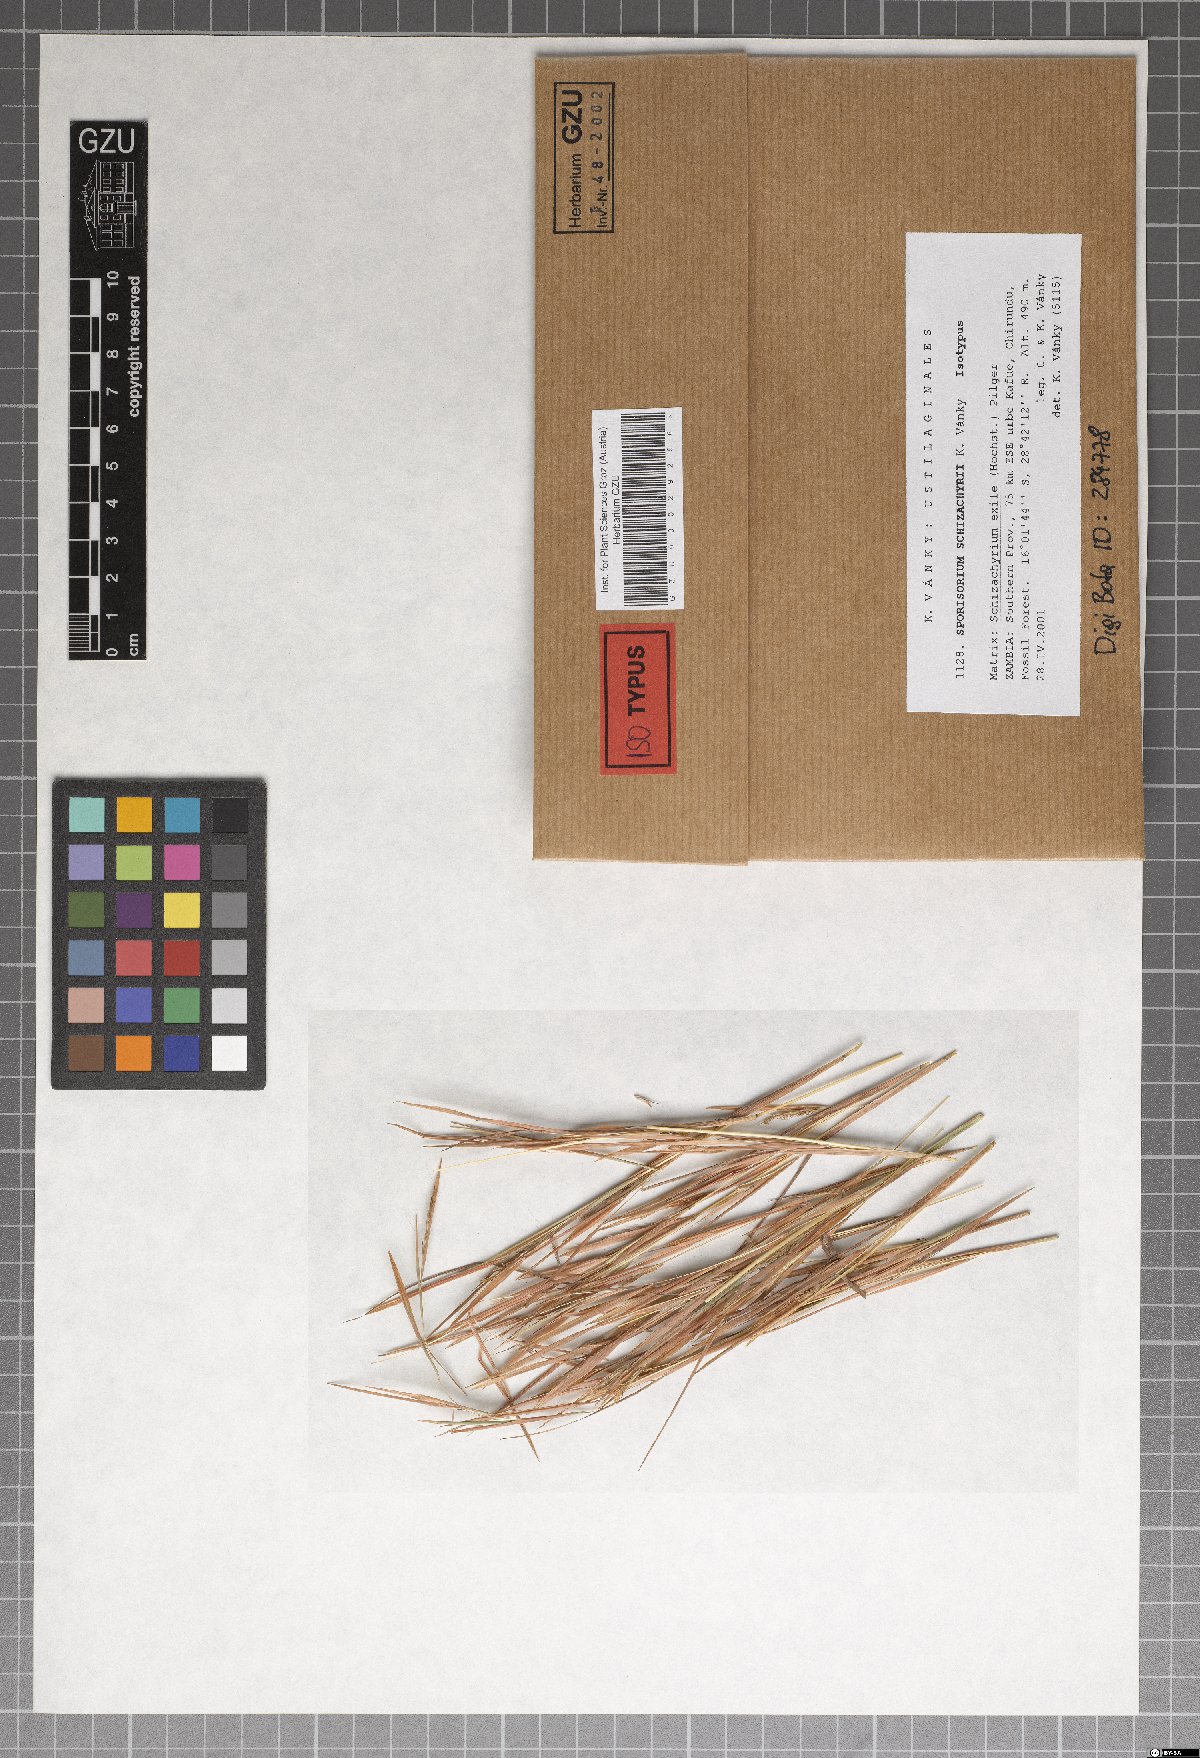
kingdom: Fungi
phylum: Basidiomycota
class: Ustilaginomycetes
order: Ustilaginales
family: Ustilaginaceae
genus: Anthracocystis
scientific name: Anthracocystis schizachyrii
